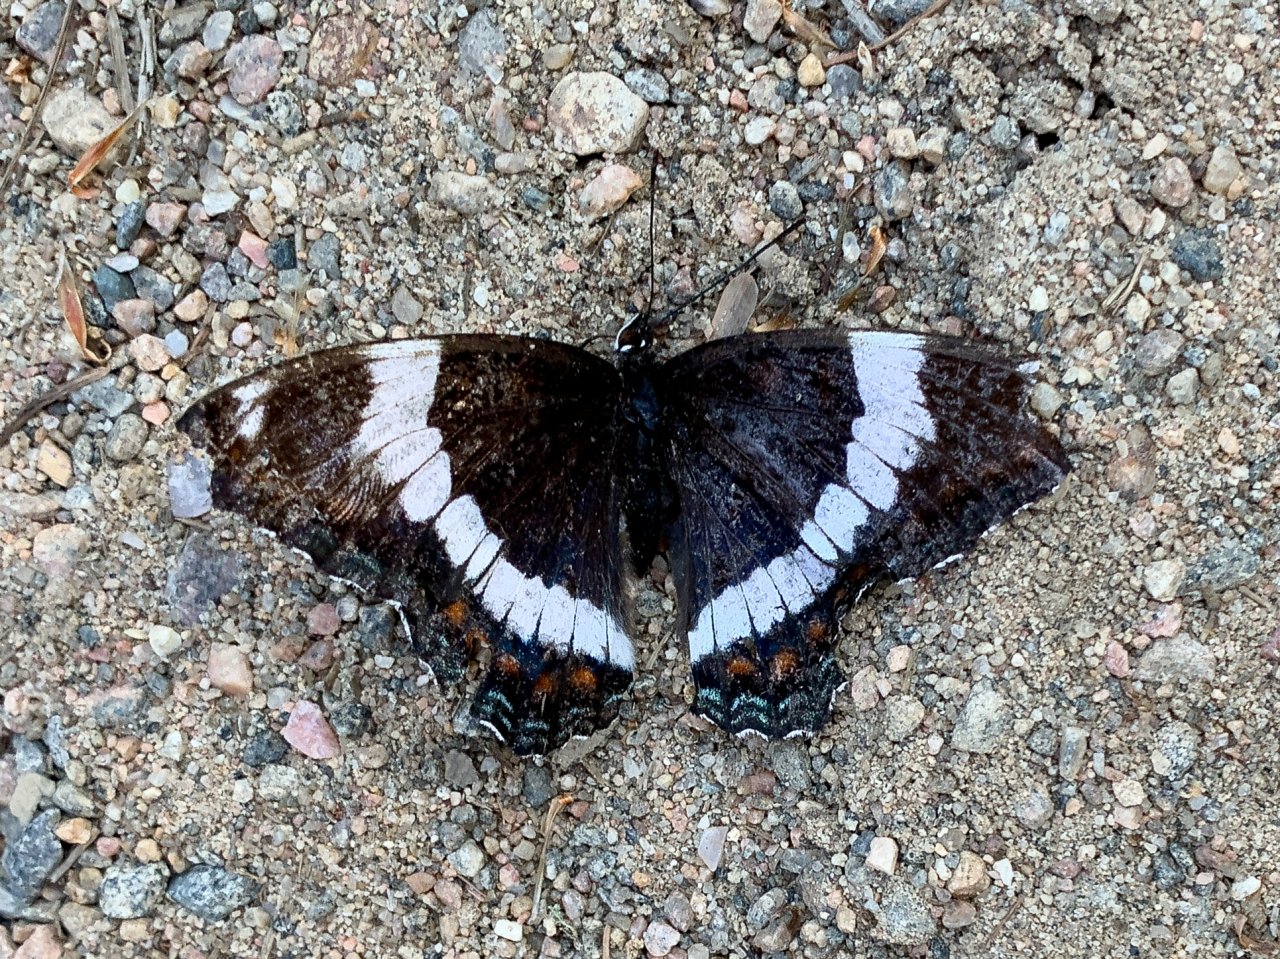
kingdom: Animalia
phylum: Arthropoda
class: Insecta
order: Lepidoptera
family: Nymphalidae
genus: Limenitis
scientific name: Limenitis arthemis
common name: Red-spotted Admiral
